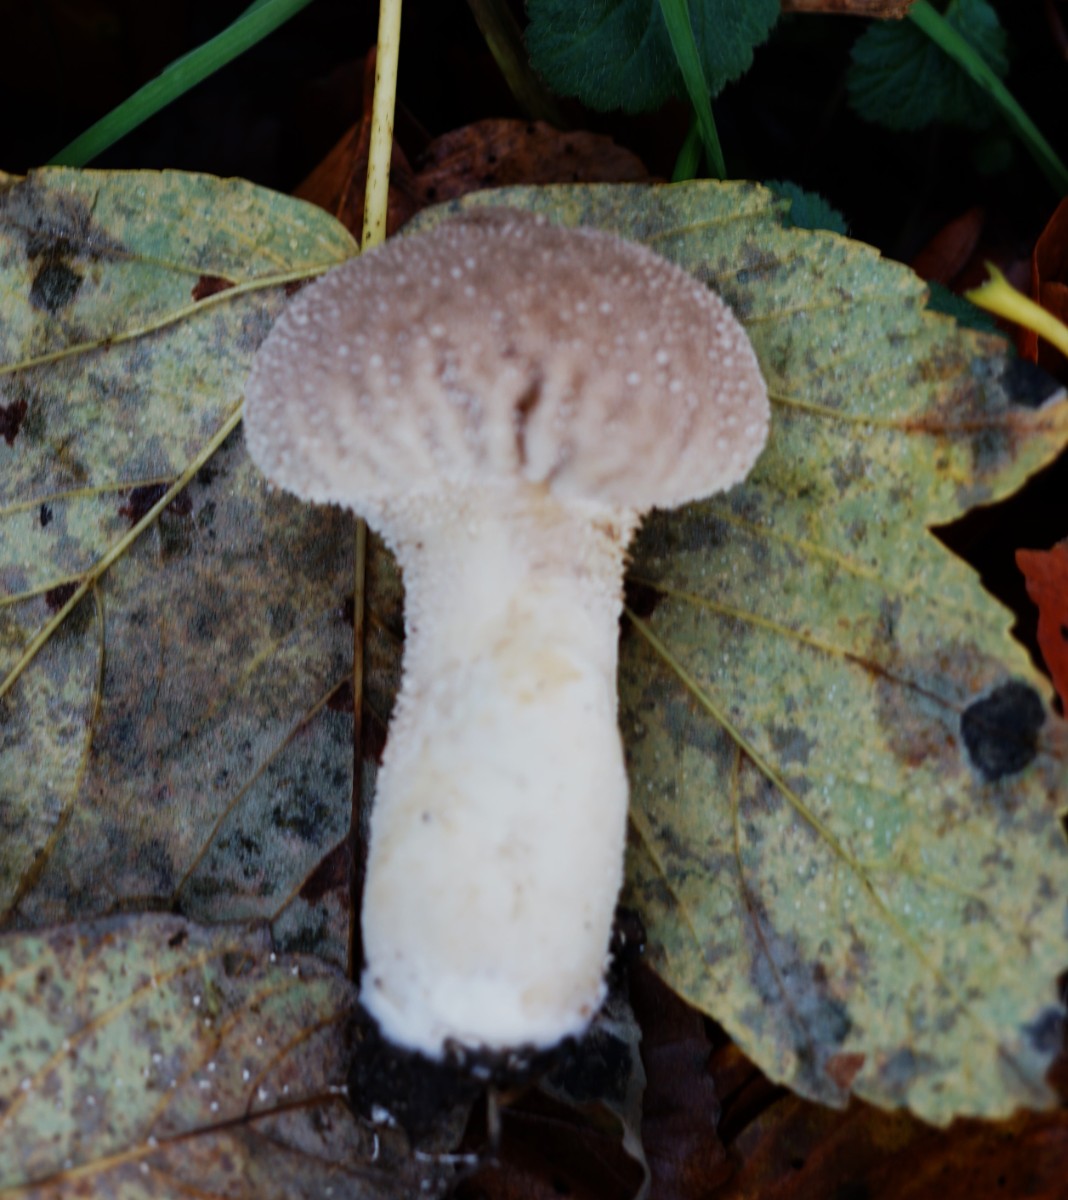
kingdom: Fungi
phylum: Basidiomycota
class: Agaricomycetes
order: Agaricales
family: Lycoperdaceae
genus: Lycoperdon
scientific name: Lycoperdon excipuliforme
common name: højstokket støvbold
